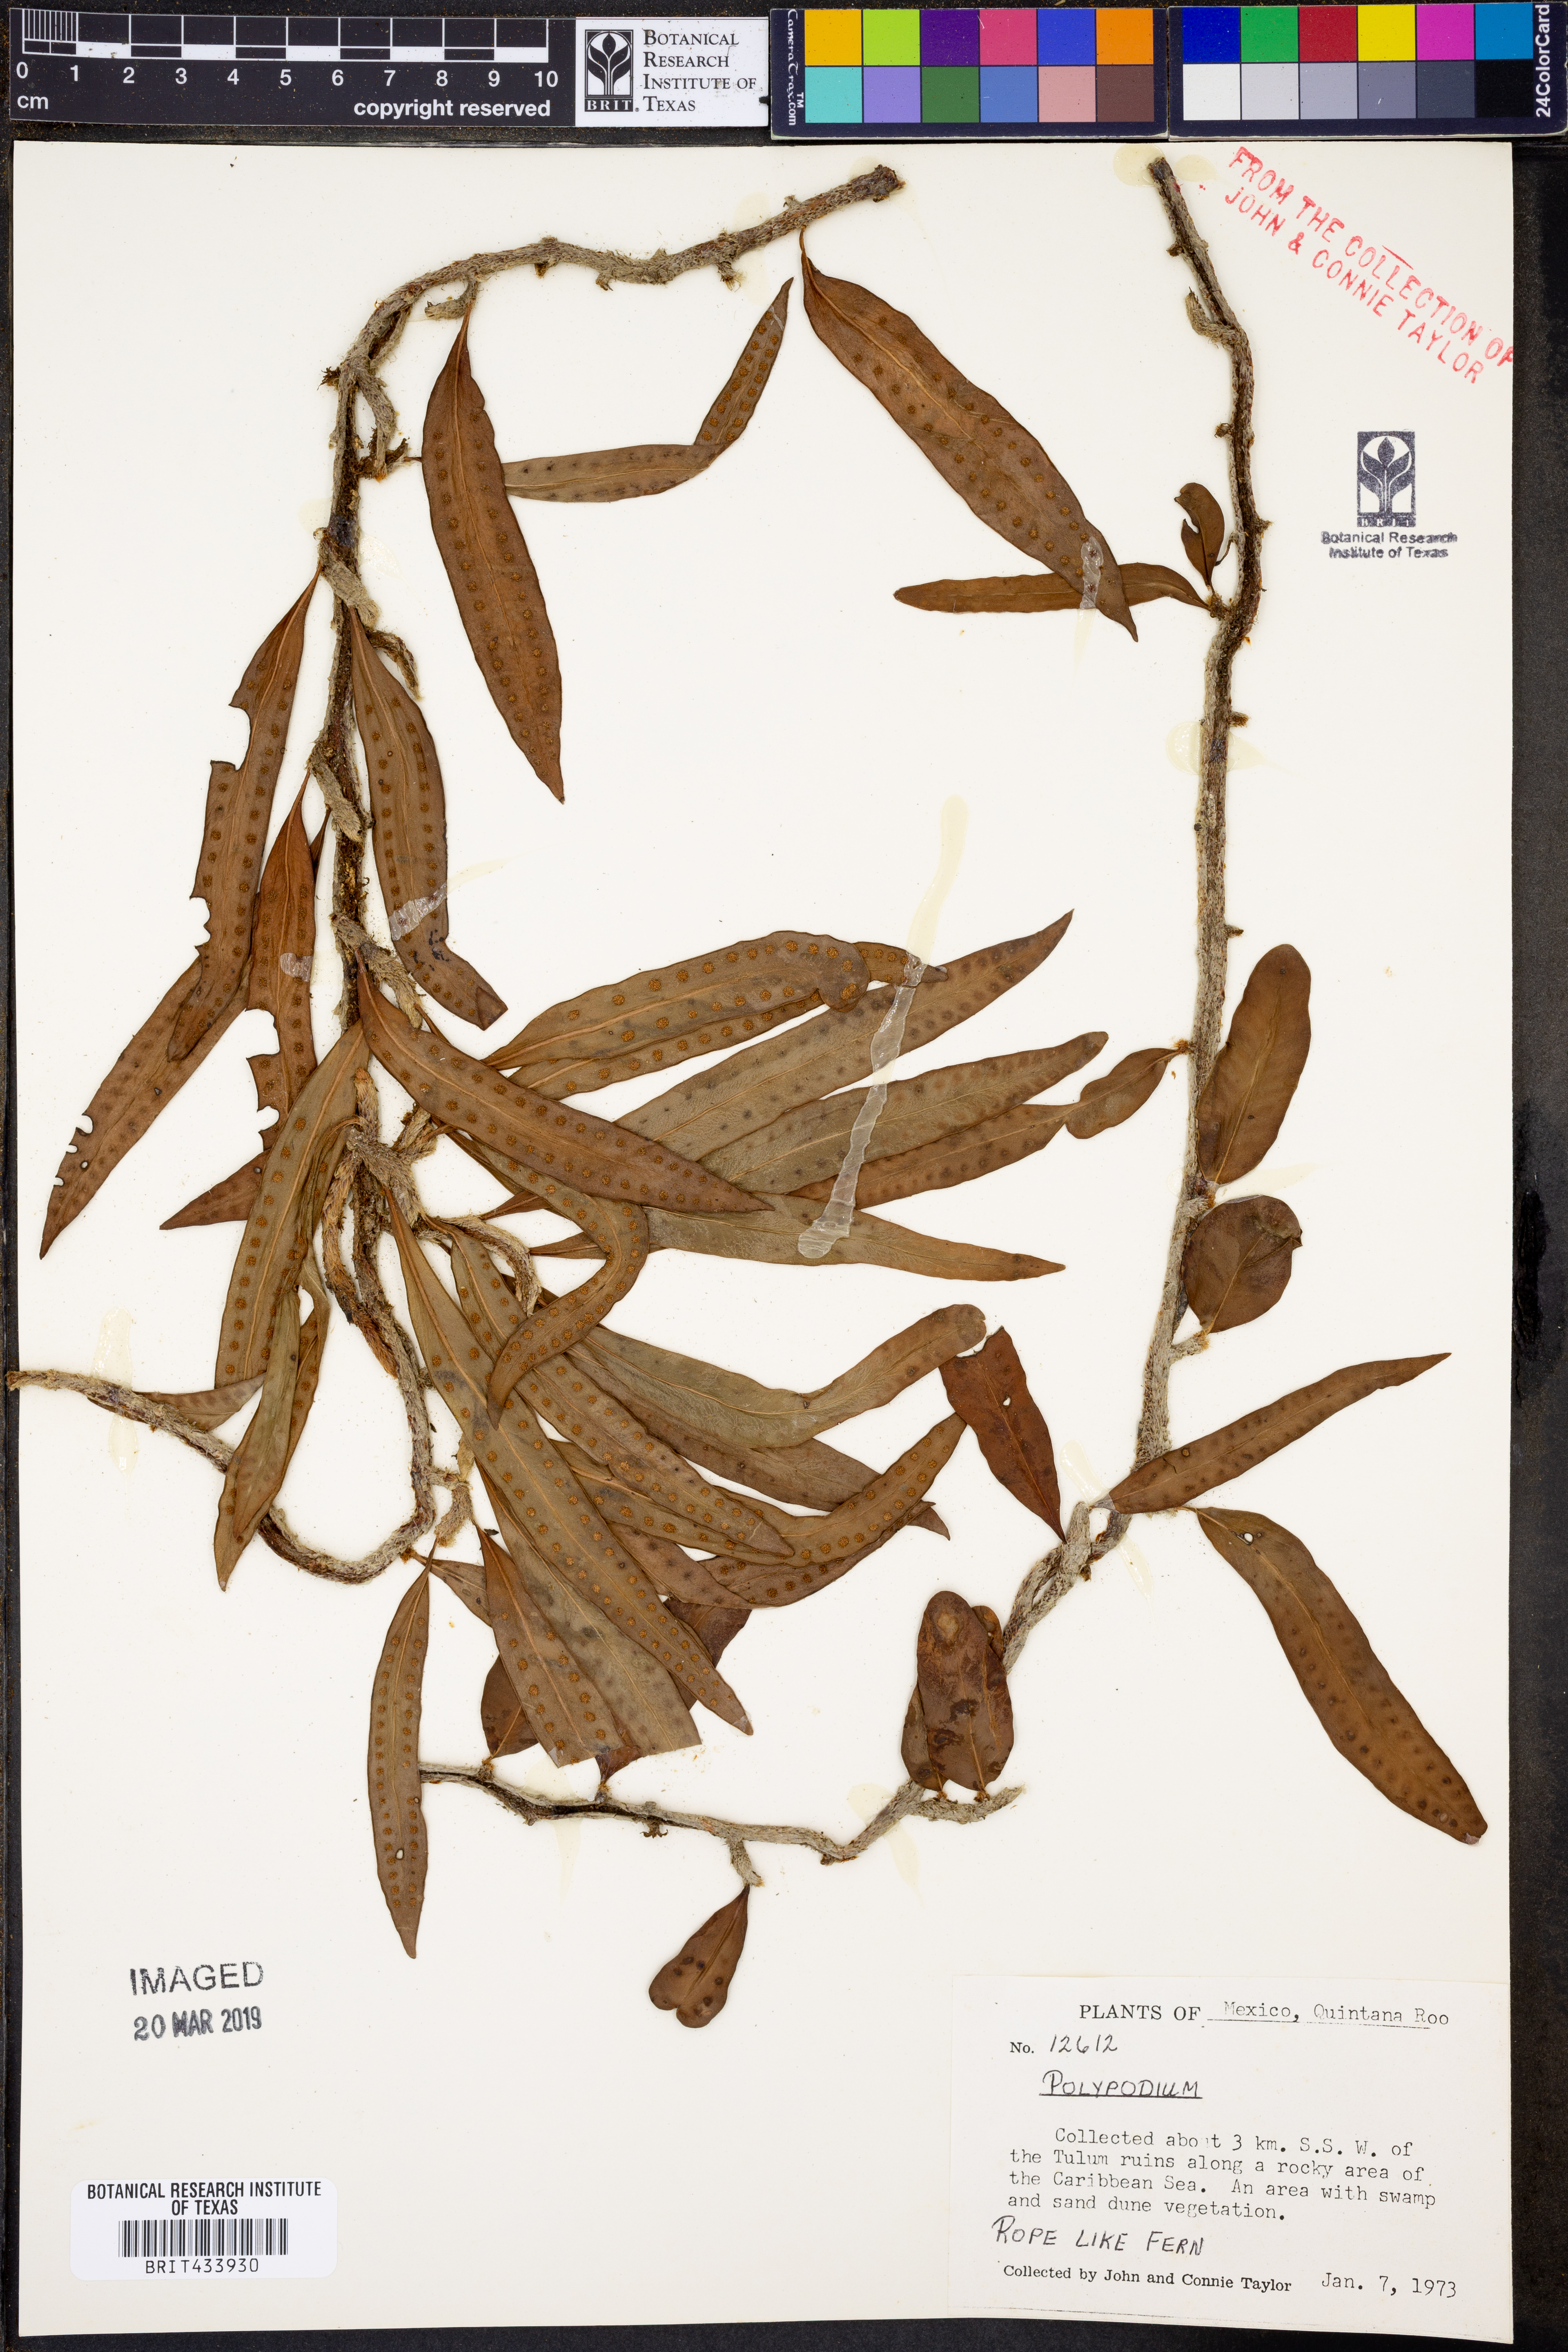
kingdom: Plantae
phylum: Tracheophyta
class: Polypodiopsida
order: Polypodiales
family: Polypodiaceae
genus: Polypodium
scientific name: Polypodium
